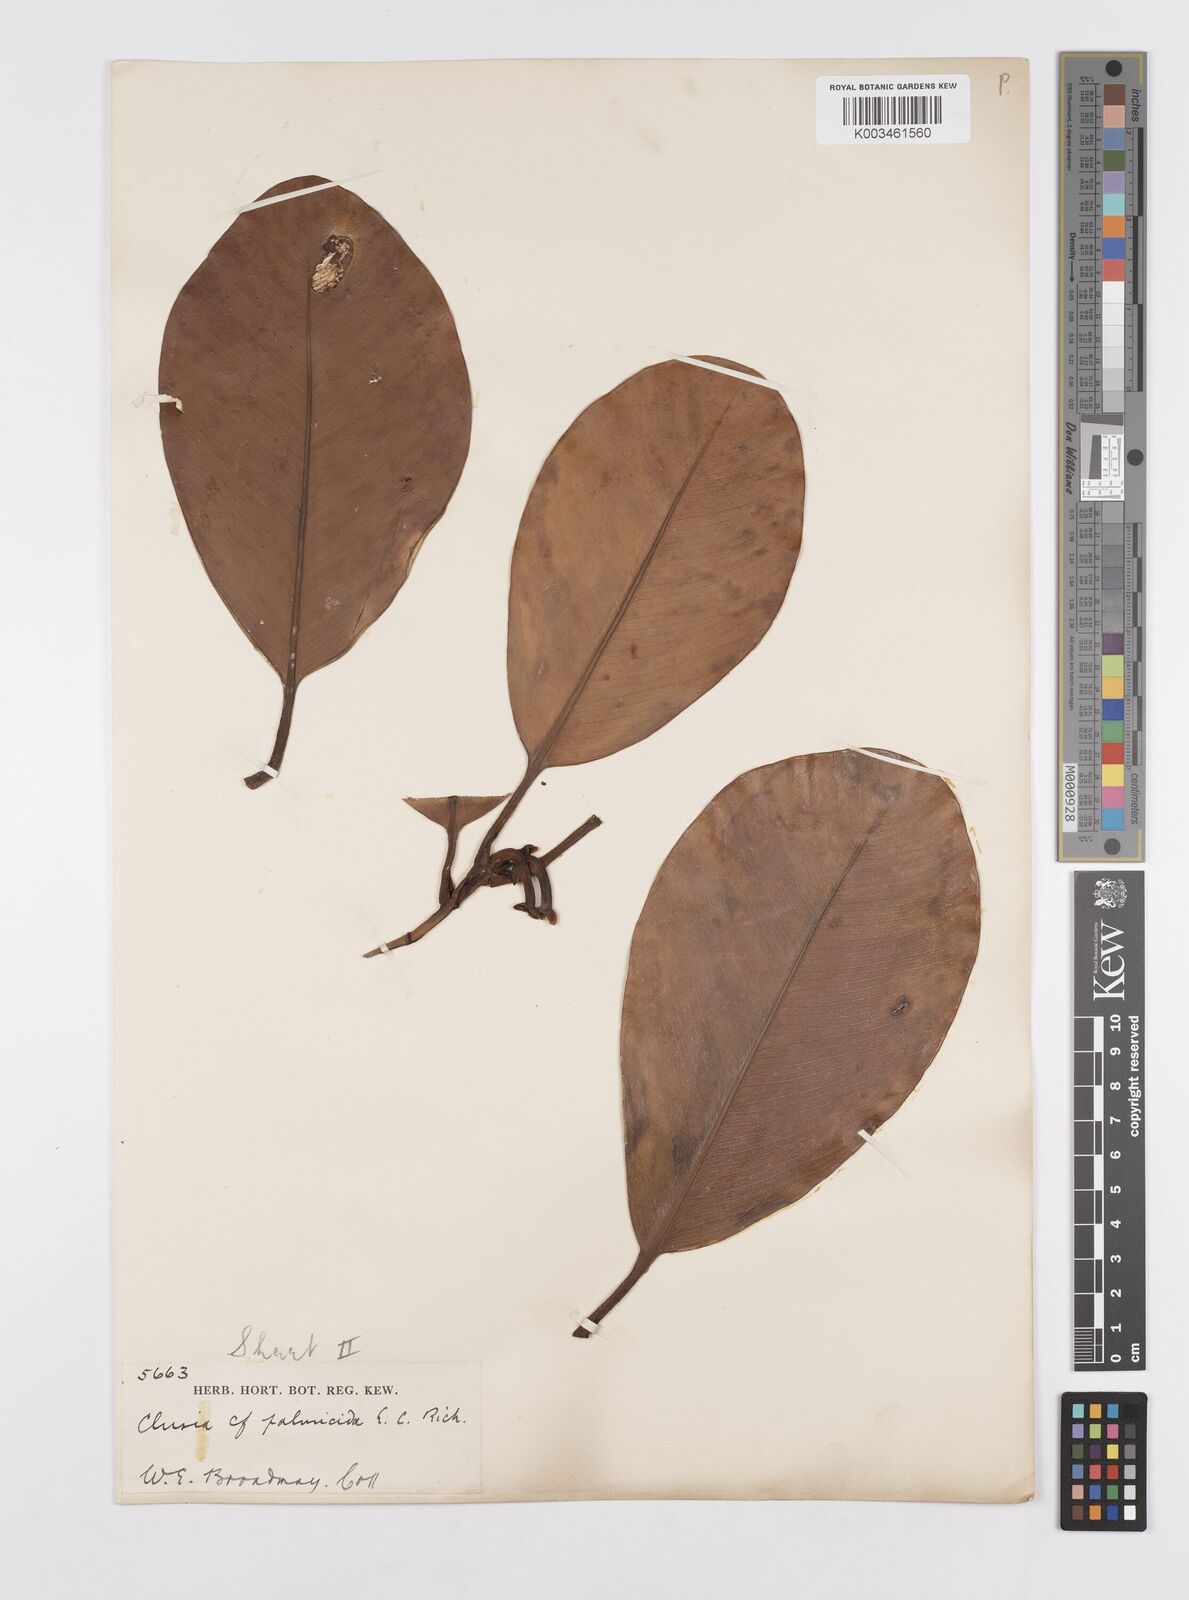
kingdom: Plantae
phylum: Tracheophyta
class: Magnoliopsida
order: Malpighiales
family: Clusiaceae
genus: Clusia
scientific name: Clusia palmicida
